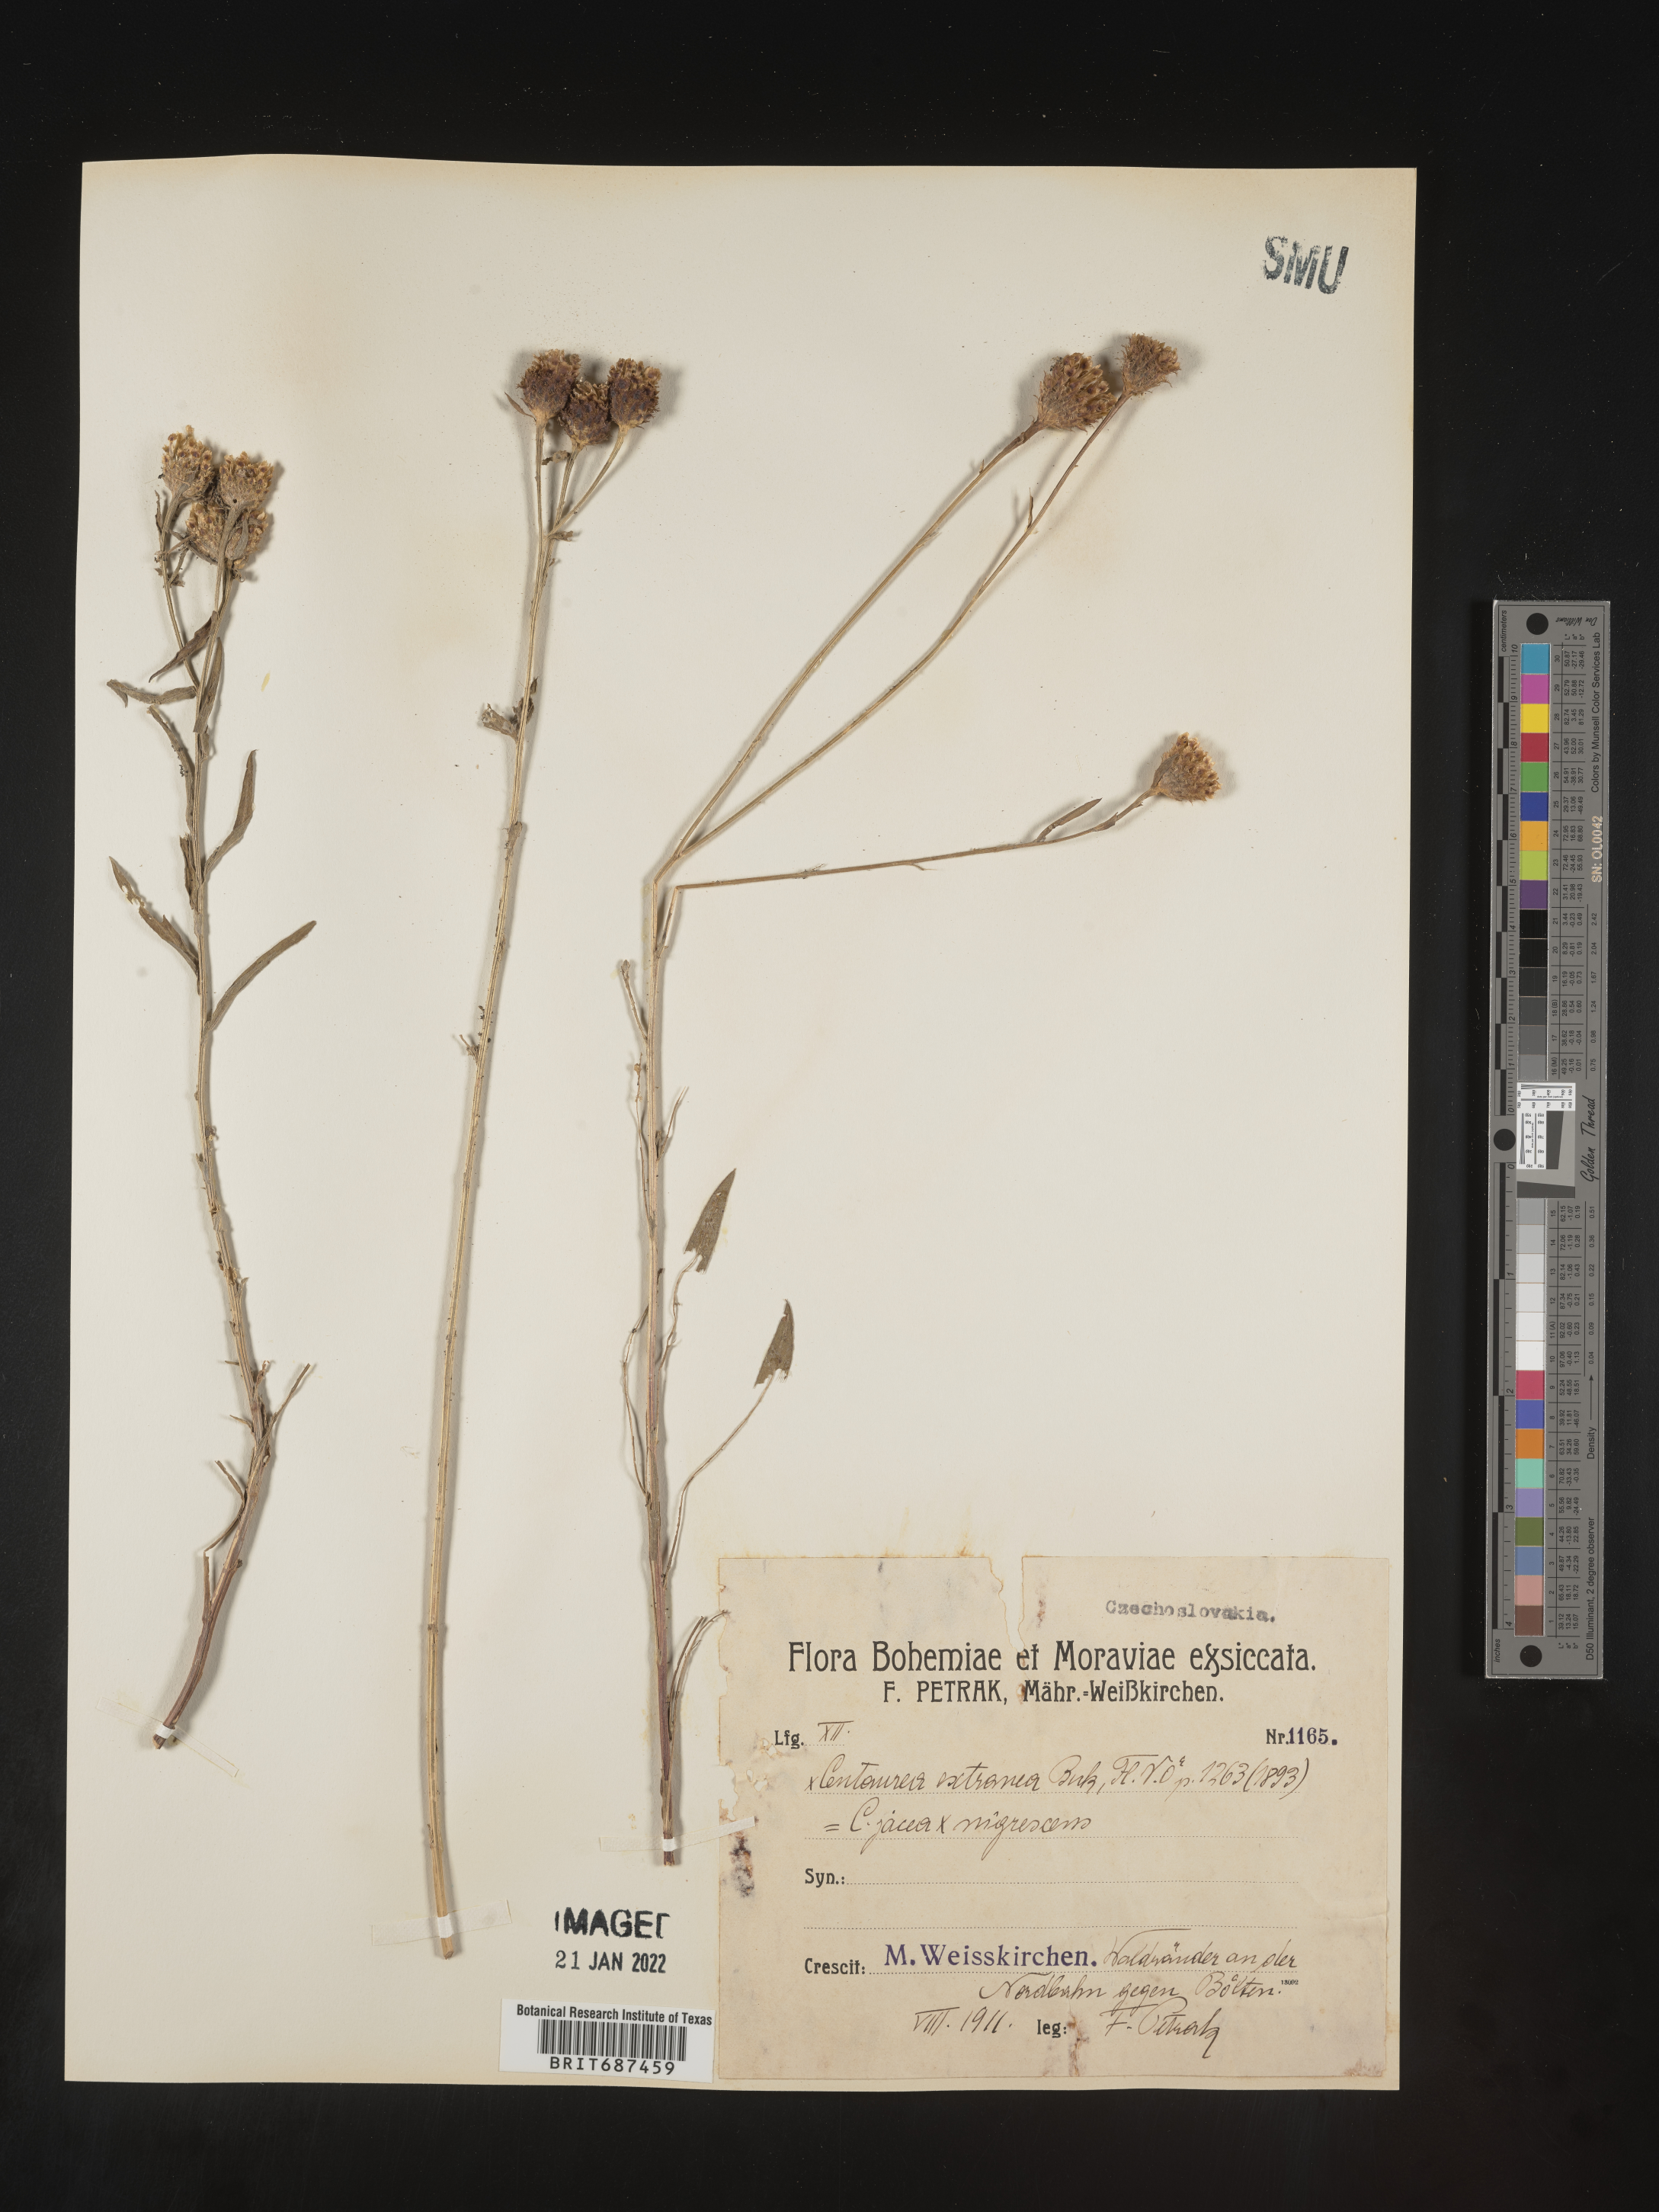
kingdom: Plantae
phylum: Tracheophyta
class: Magnoliopsida
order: Asterales
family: Asteraceae
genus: Centaurea
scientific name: Centaurea
